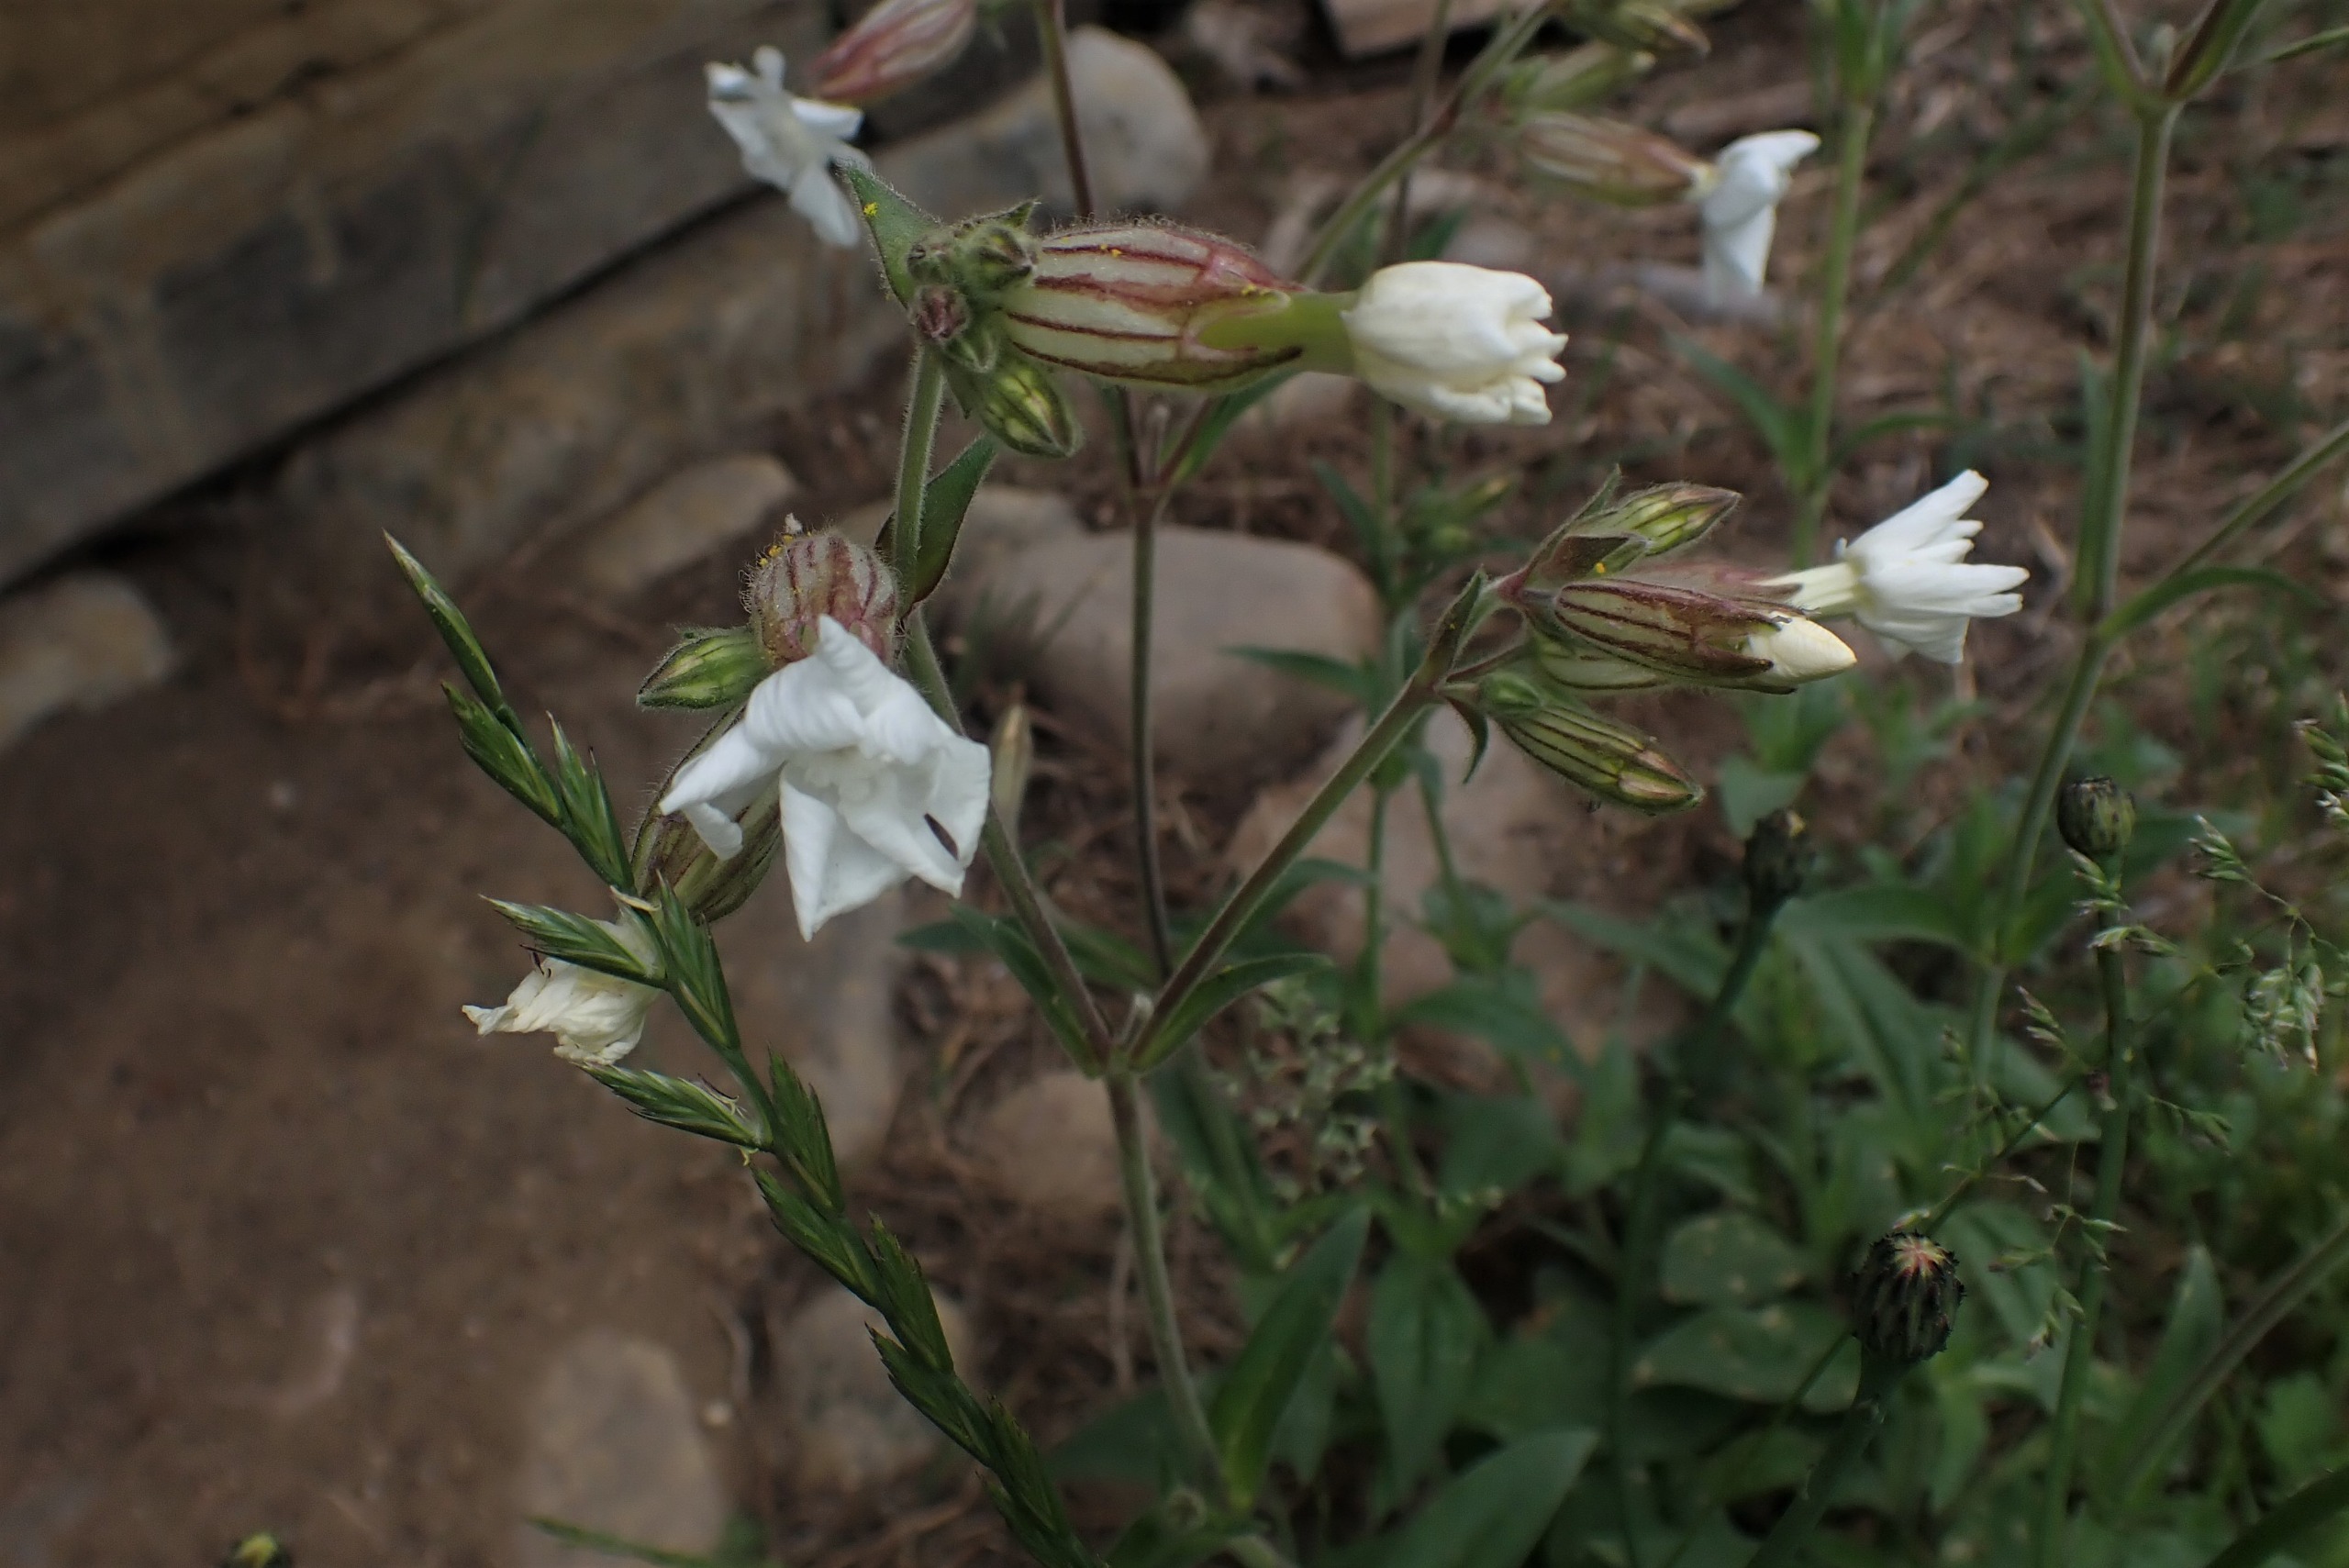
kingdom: Plantae
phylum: Tracheophyta
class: Magnoliopsida
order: Caryophyllales
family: Caryophyllaceae
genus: Silene
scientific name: Silene latifolia
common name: Aftenpragtstjerne
